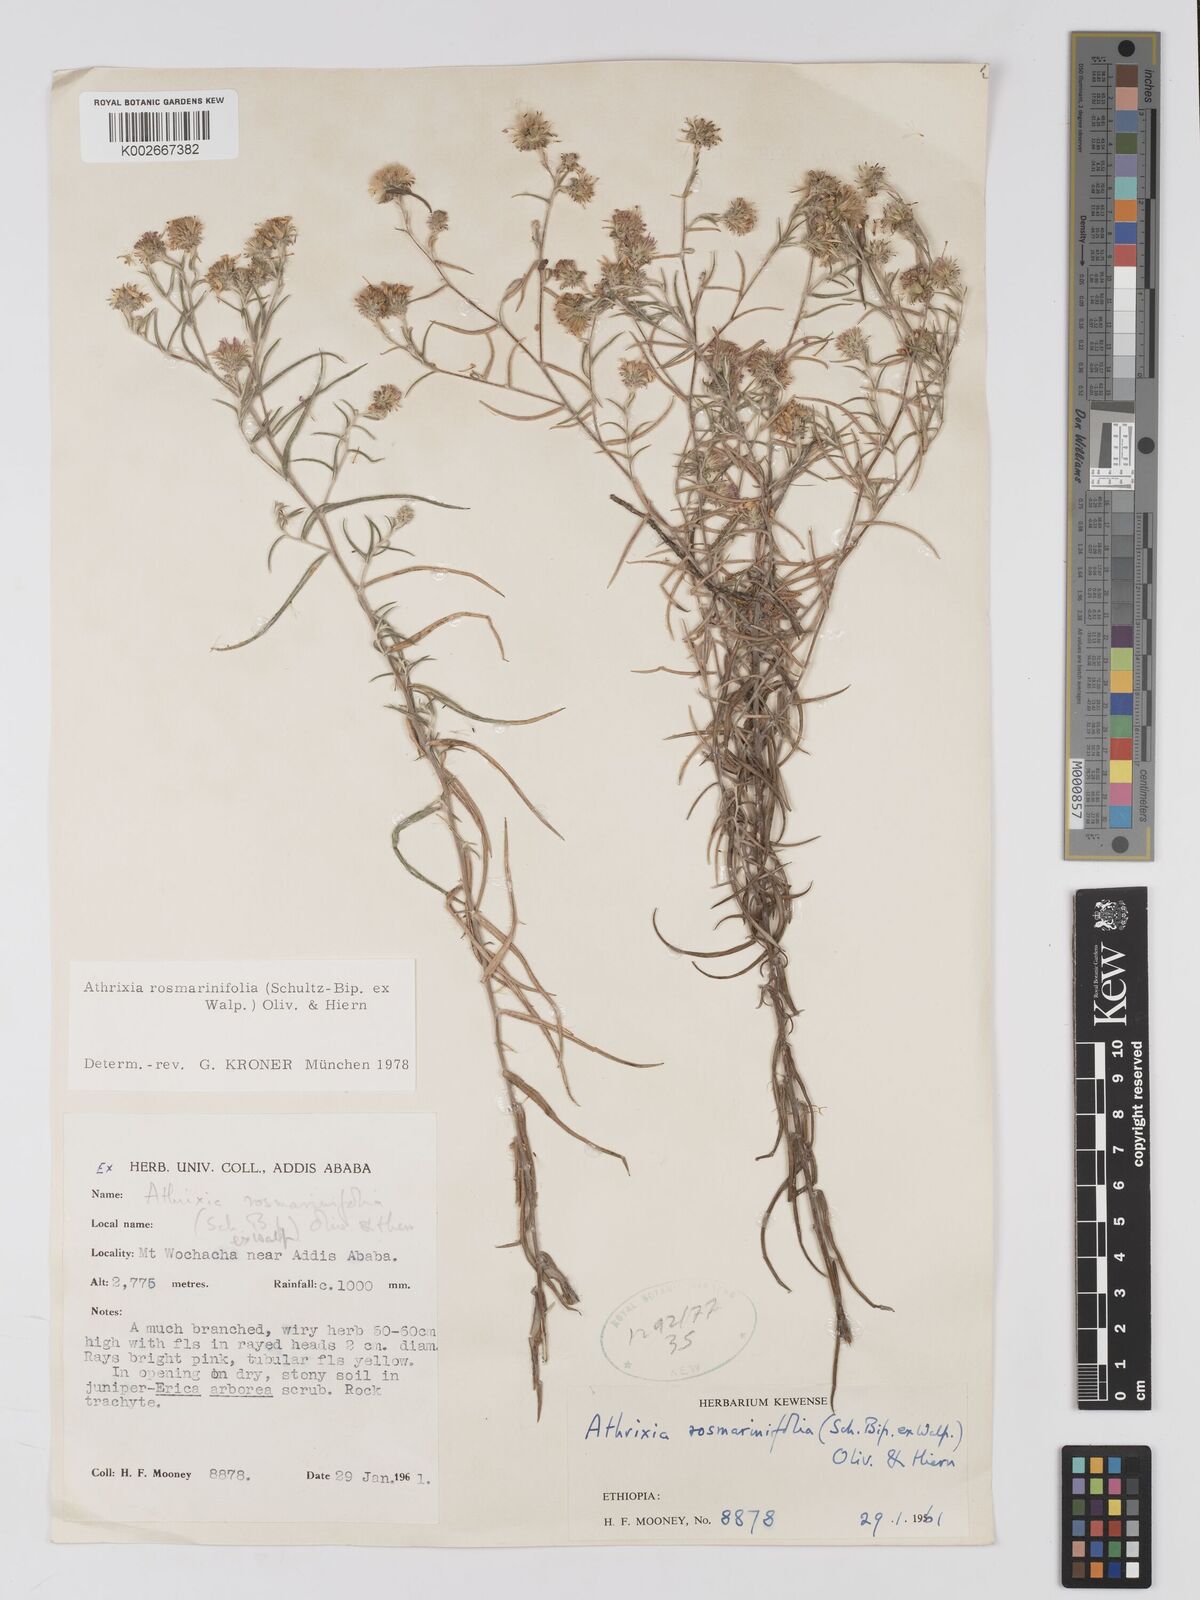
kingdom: Plantae
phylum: Tracheophyta
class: Magnoliopsida
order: Asterales
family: Asteraceae
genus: Athrixia
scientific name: Athrixia rosmarinifolia
